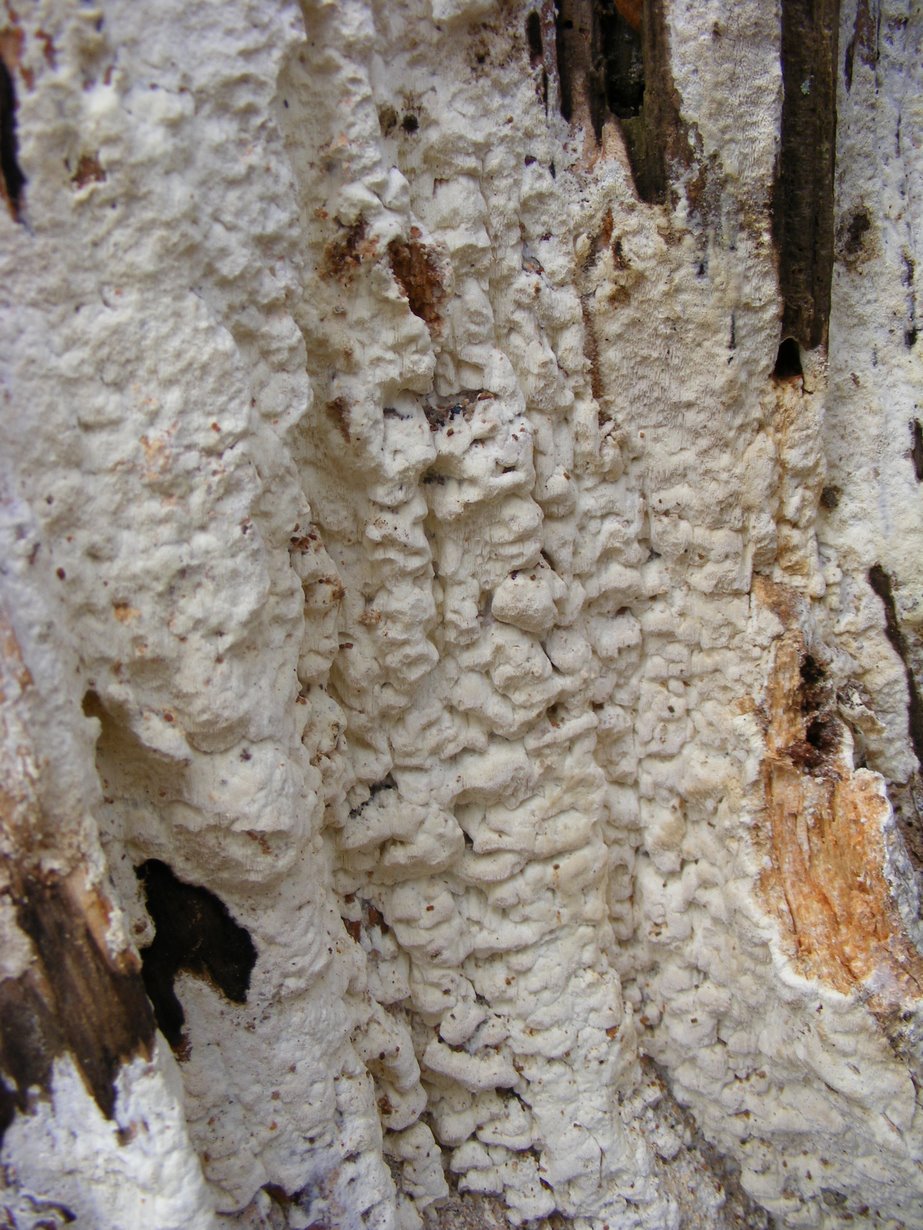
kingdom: Fungi
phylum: Basidiomycota
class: Agaricomycetes
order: Polyporales
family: Fomitopsidaceae
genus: Daedalea
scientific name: Daedalea xantha
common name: gul sejporesvamp
